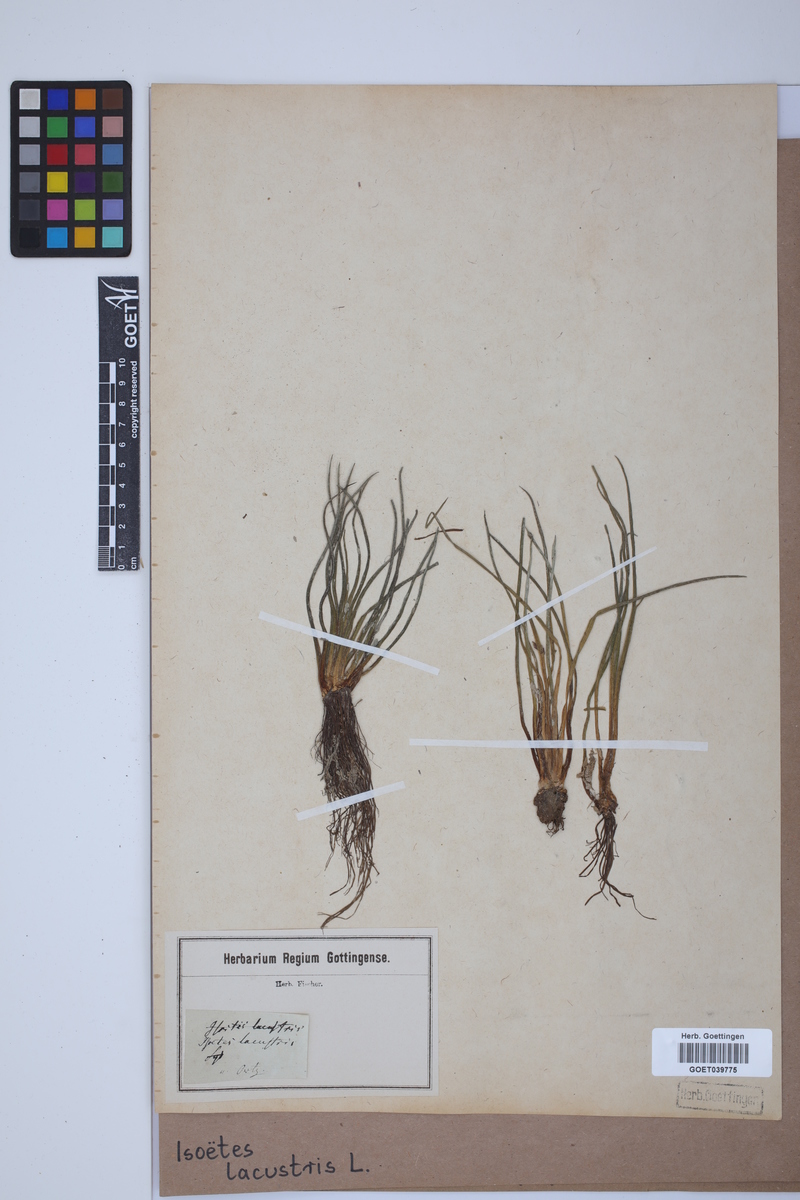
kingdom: Plantae
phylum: Tracheophyta
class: Lycopodiopsida
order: Isoetales
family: Isoetaceae
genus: Isoetes
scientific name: Isoetes lacustris
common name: Common quillwort
